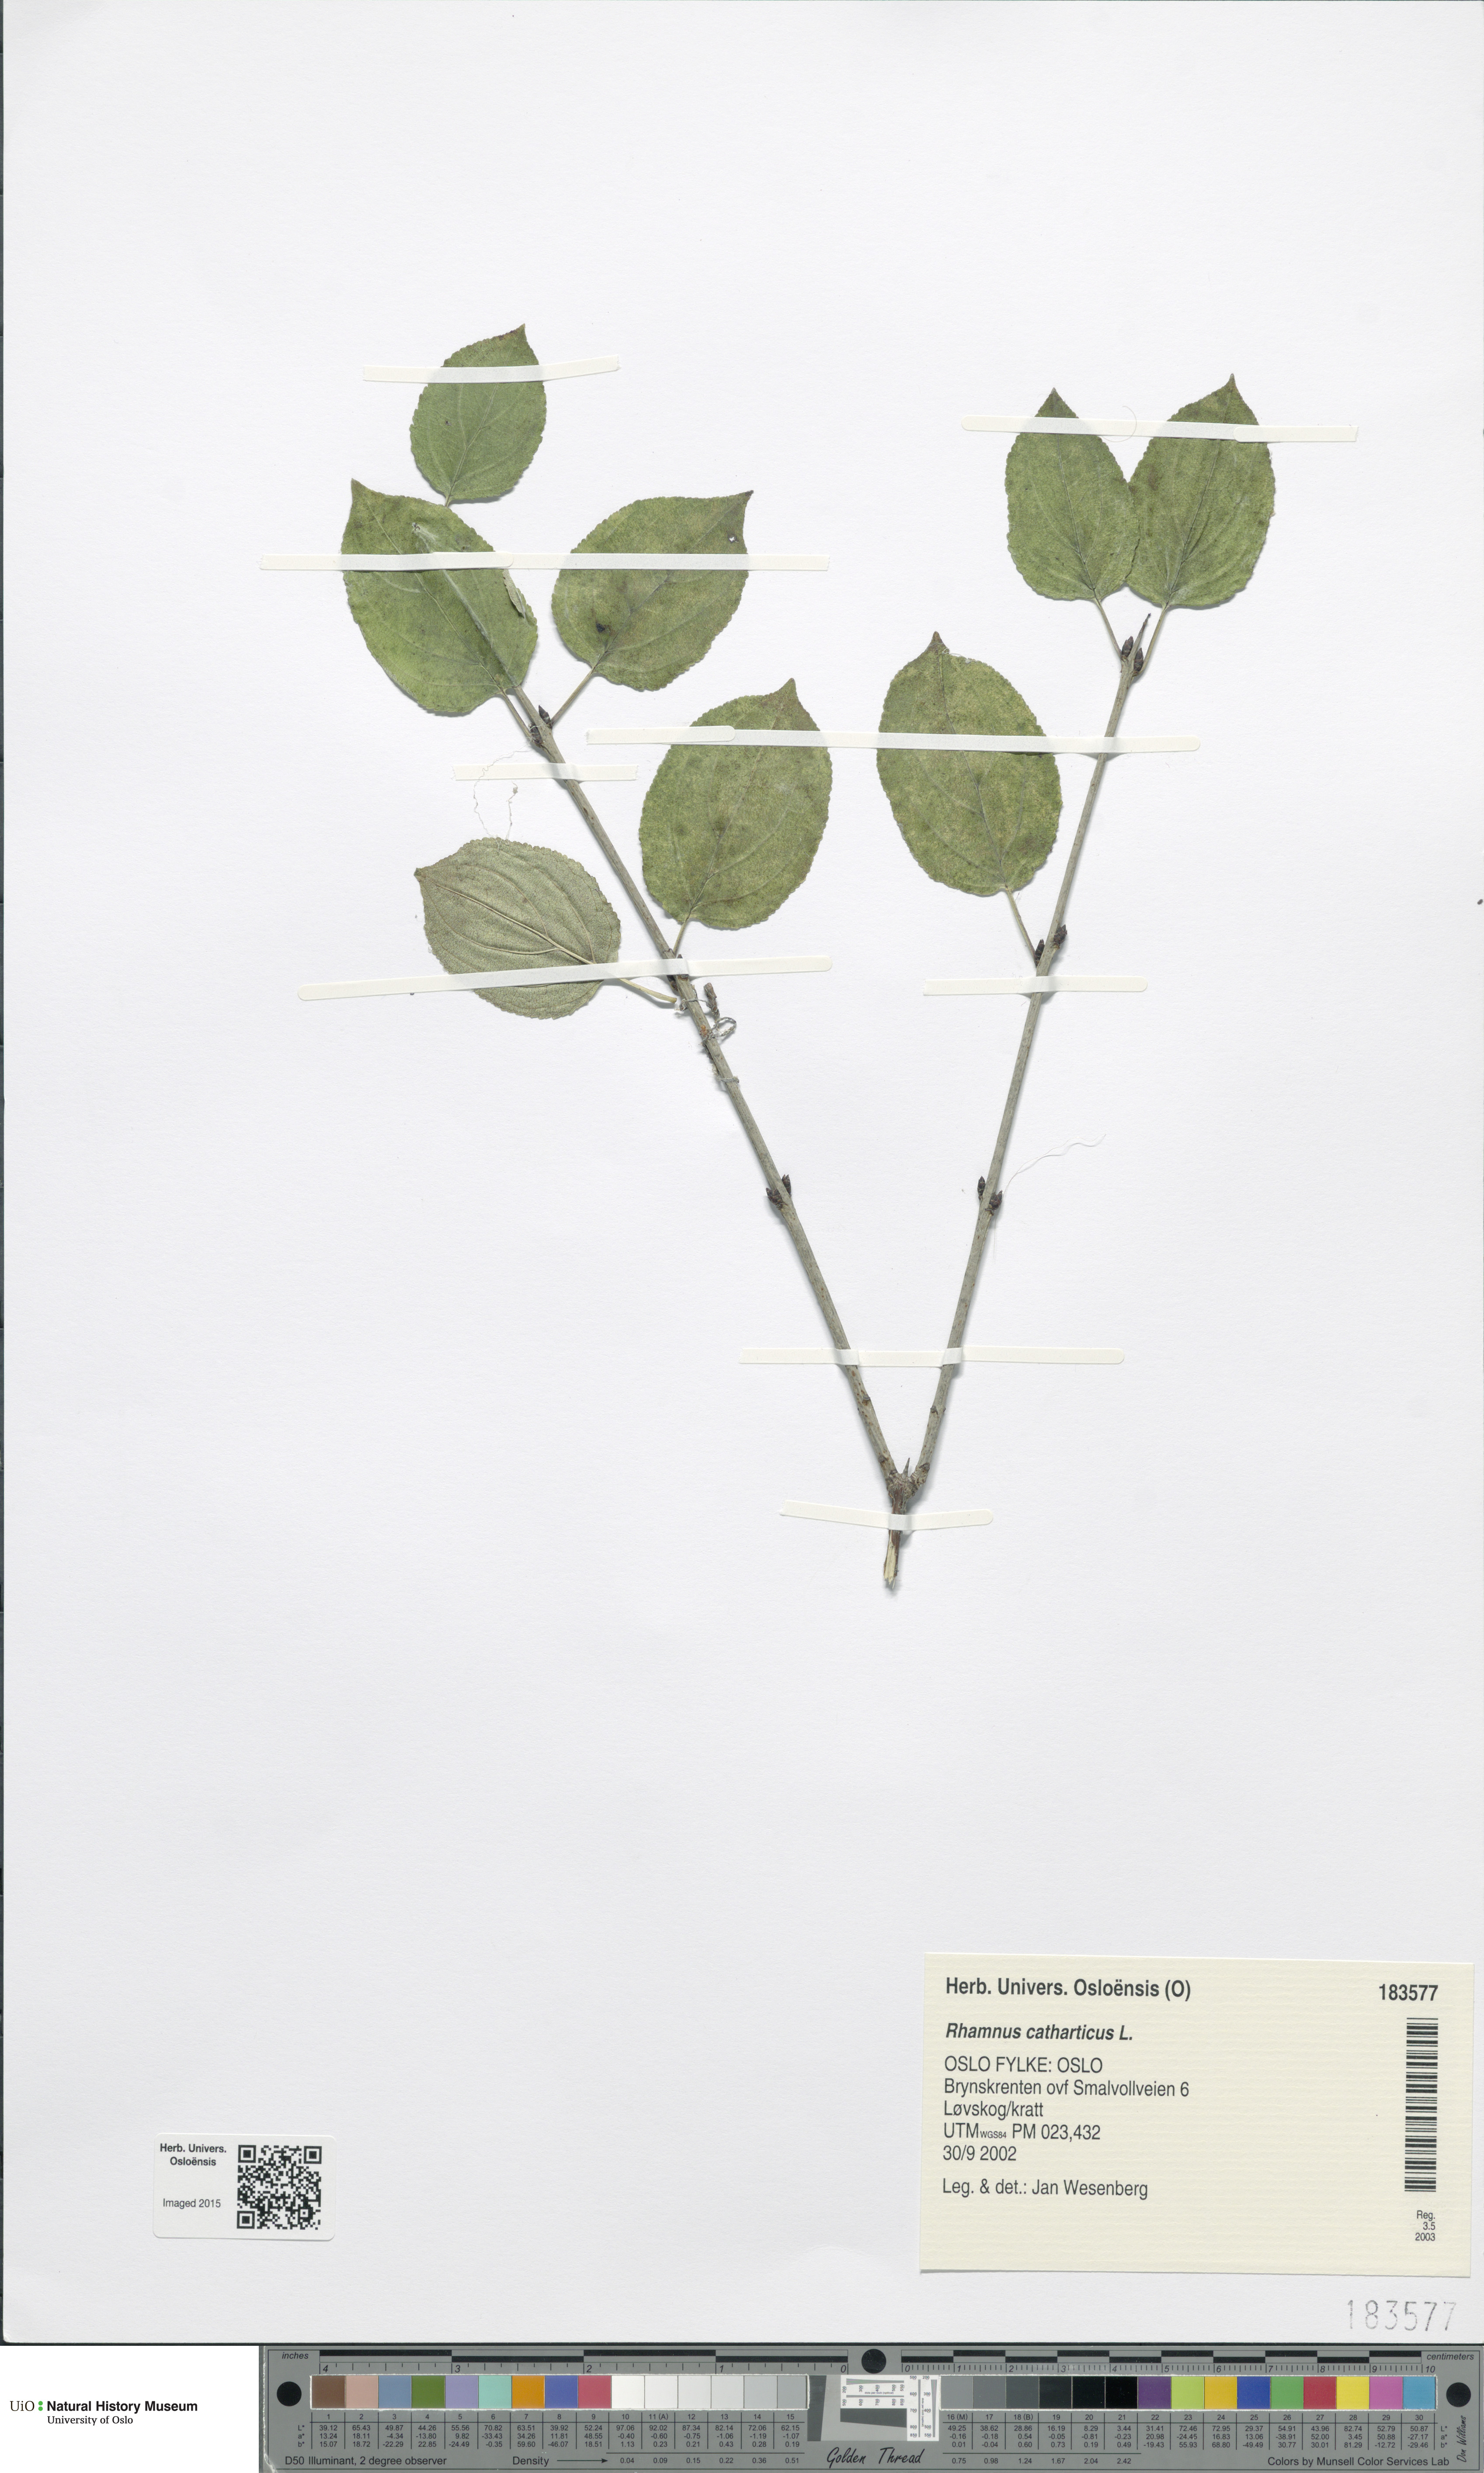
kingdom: Plantae
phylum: Tracheophyta
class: Magnoliopsida
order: Rosales
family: Rhamnaceae
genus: Rhamnus
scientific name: Rhamnus cathartica
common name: Common buckthorn
